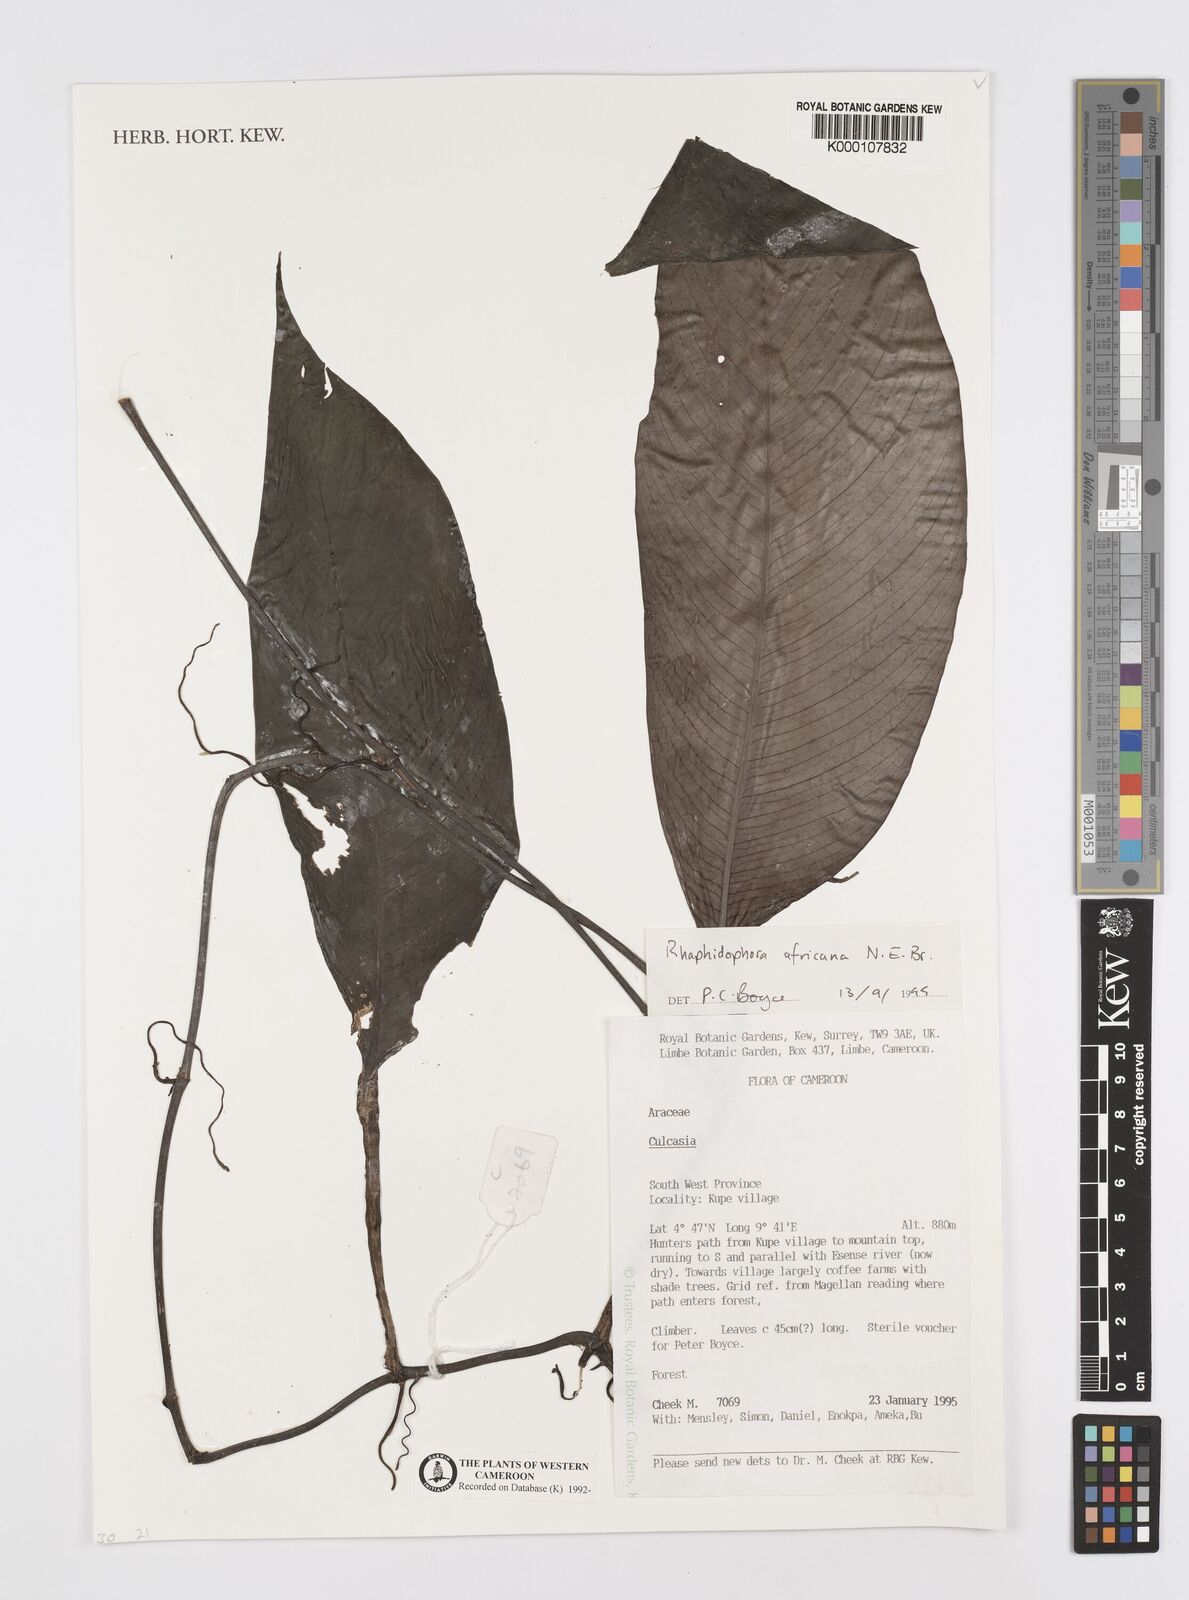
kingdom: Plantae
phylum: Tracheophyta
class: Liliopsida
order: Alismatales
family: Araceae
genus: Rhaphidophora
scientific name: Rhaphidophora africana
